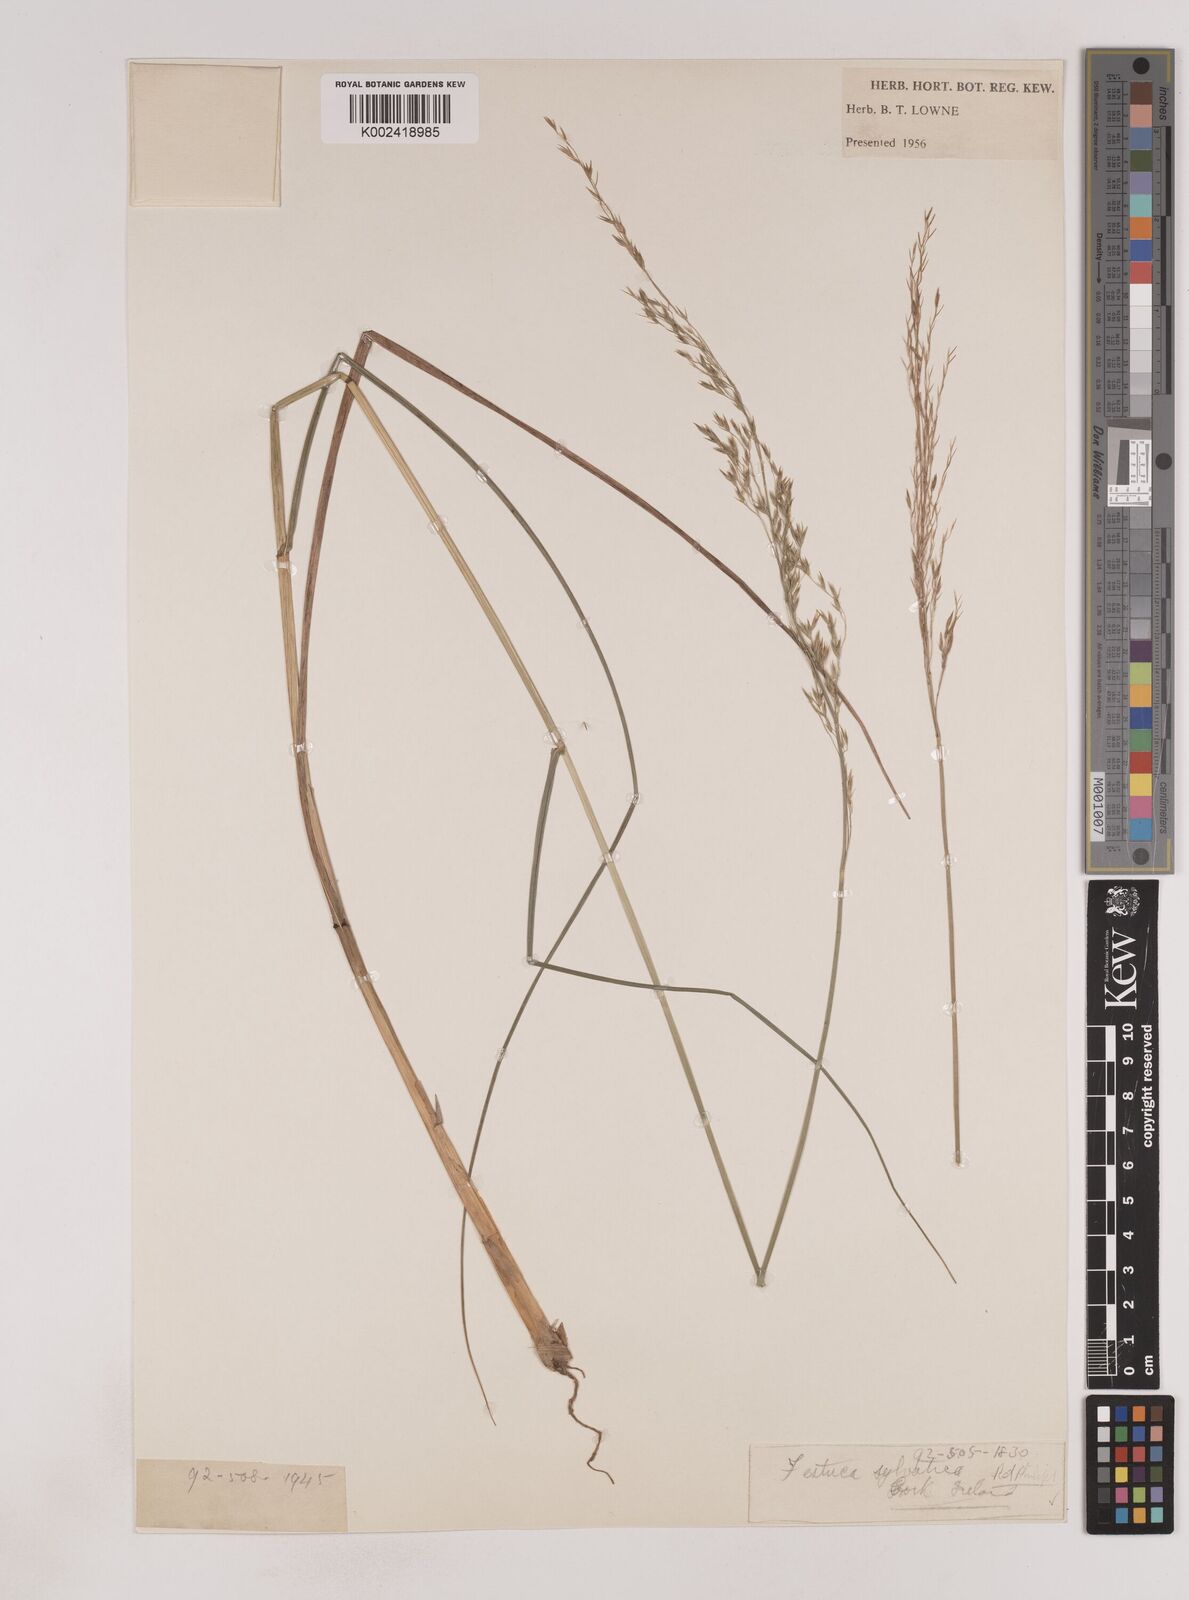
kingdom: Plantae
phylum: Tracheophyta
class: Liliopsida
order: Poales
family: Poaceae
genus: Festuca
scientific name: Festuca drymeja
